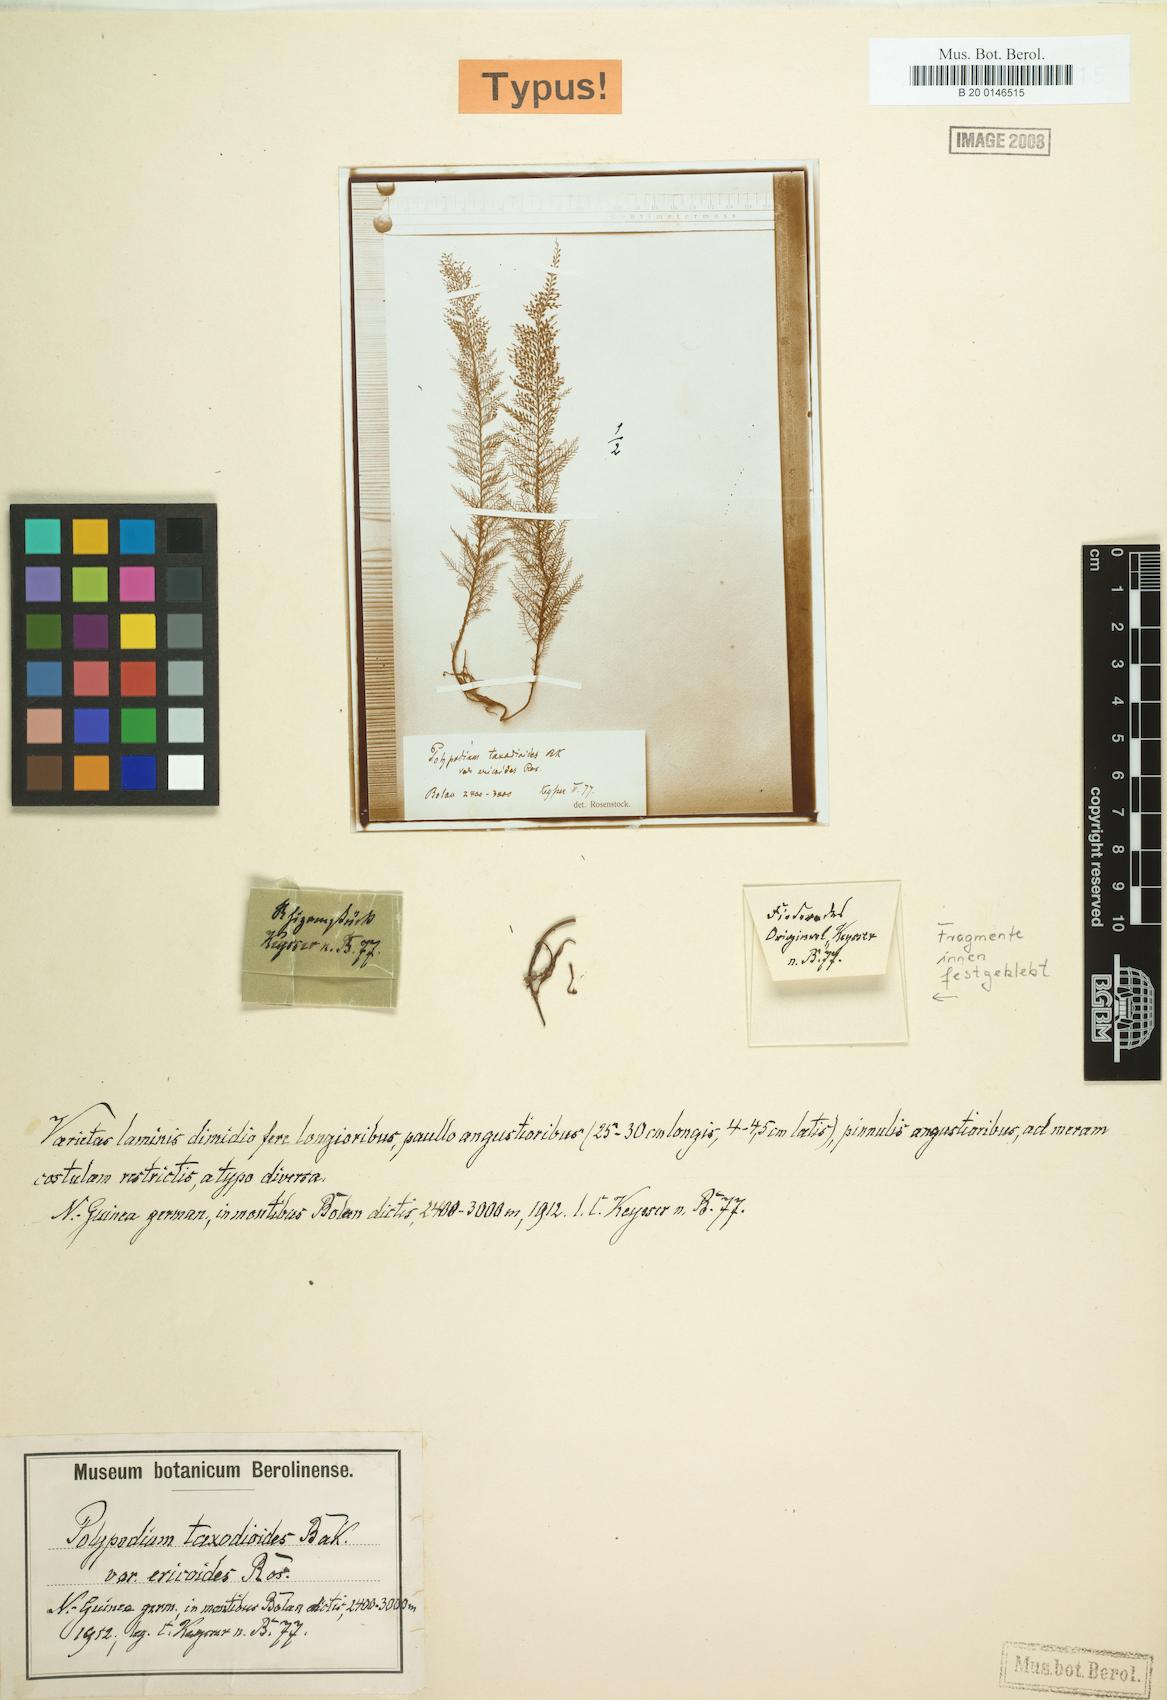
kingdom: Plantae
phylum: Tracheophyta
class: Polypodiopsida
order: Polypodiales
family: Polypodiaceae
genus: Oreogrammitis
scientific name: Oreogrammitis taxodioides
